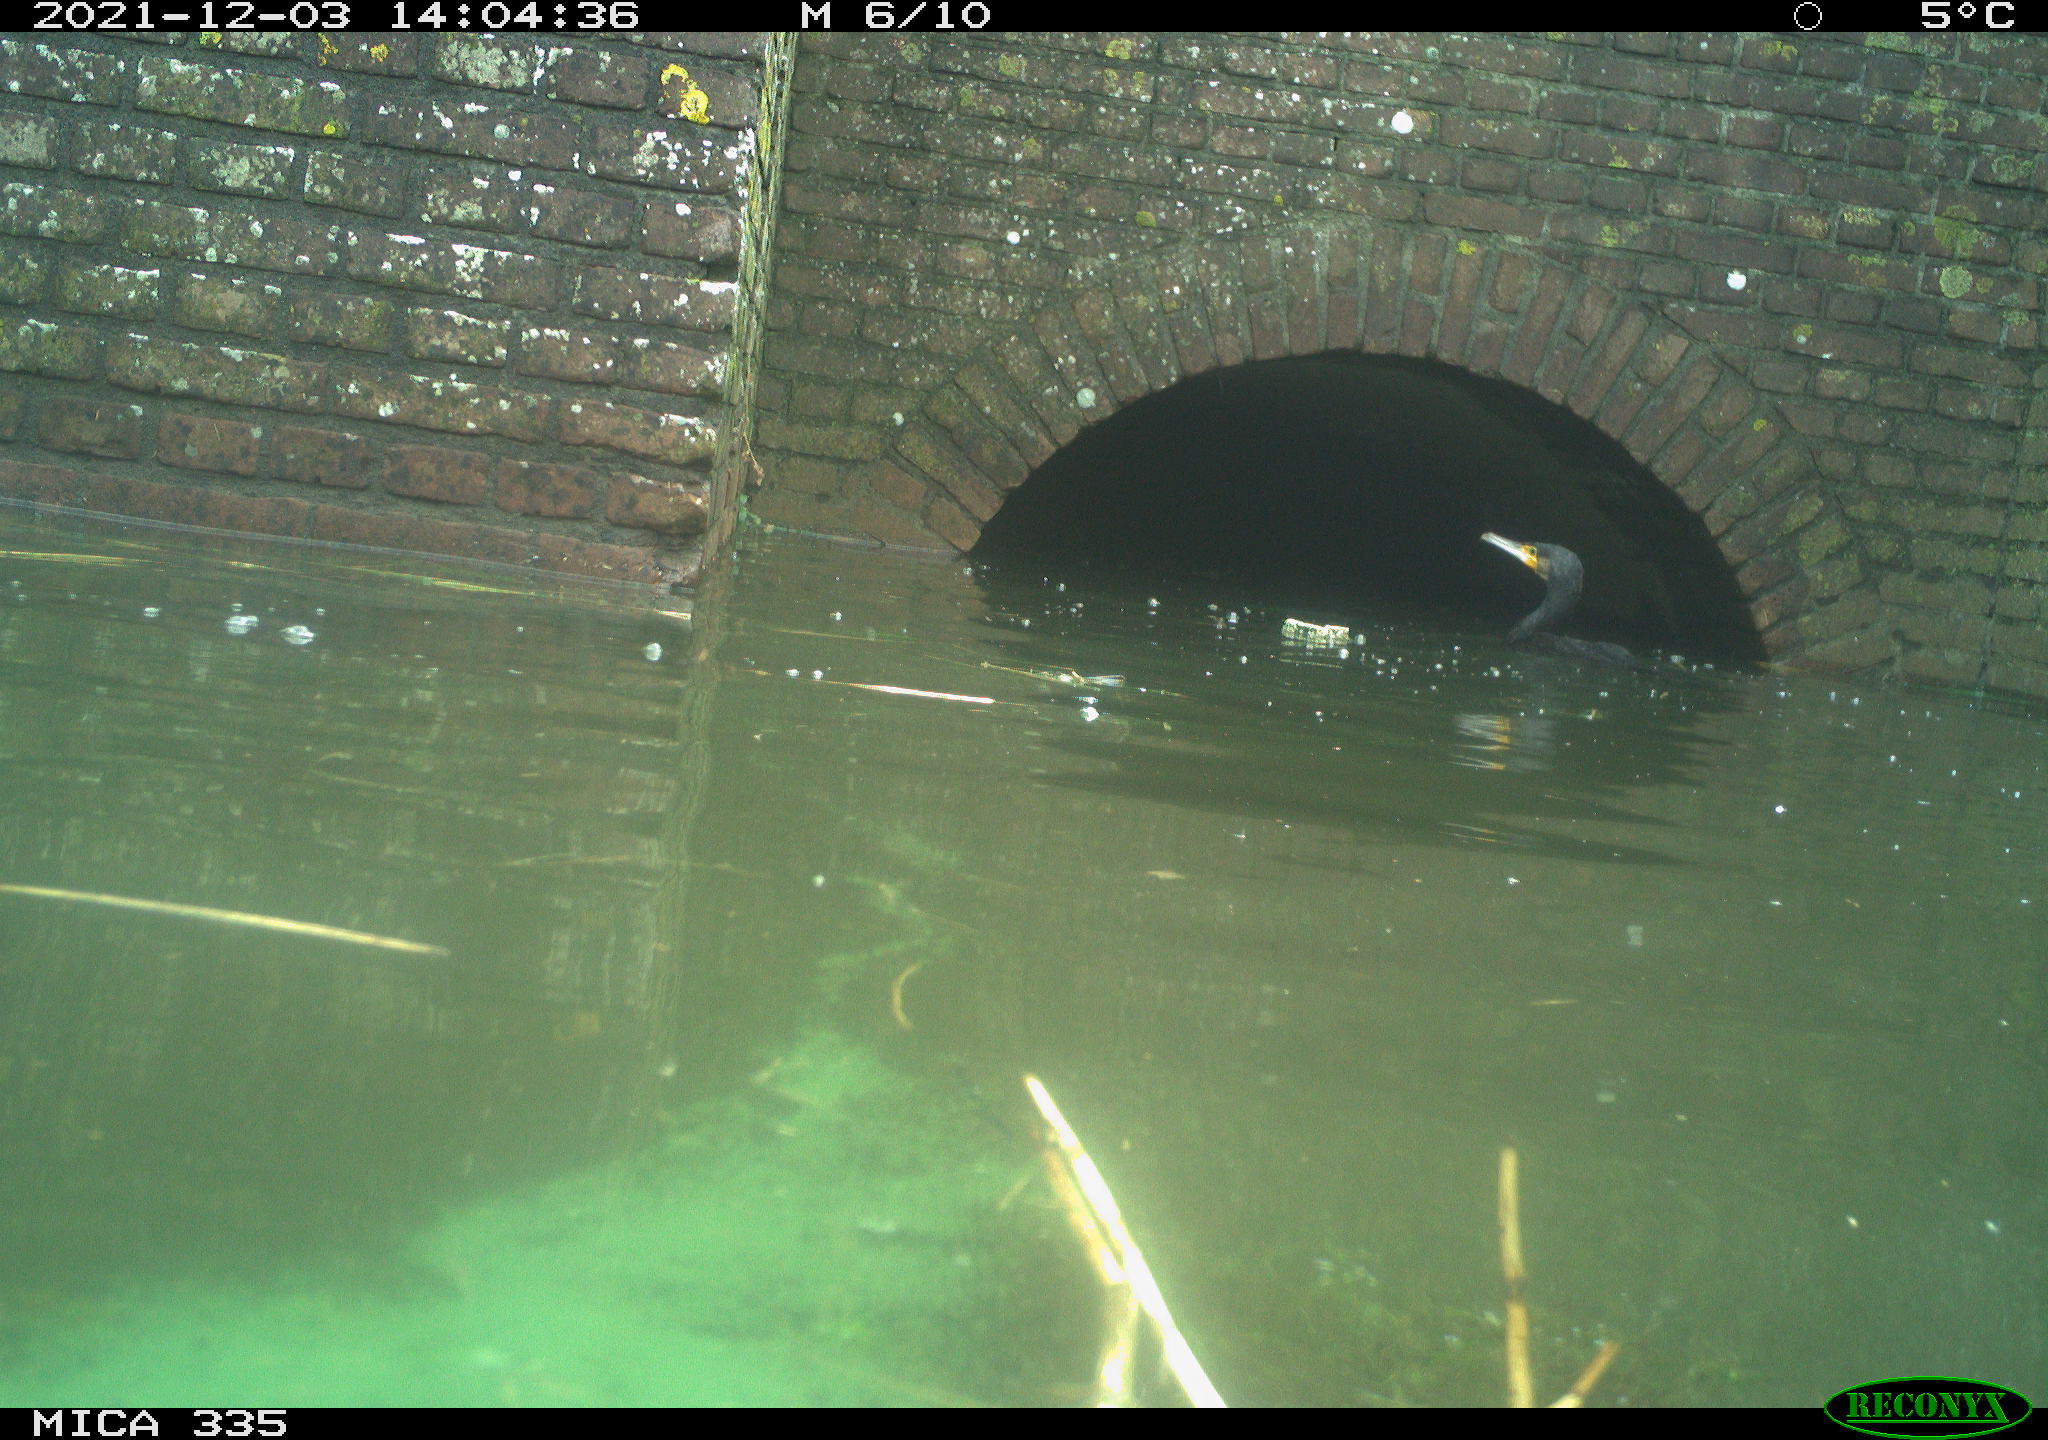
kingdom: Animalia
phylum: Chordata
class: Aves
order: Suliformes
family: Phalacrocoracidae
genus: Phalacrocorax
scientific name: Phalacrocorax carbo
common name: Great cormorant
